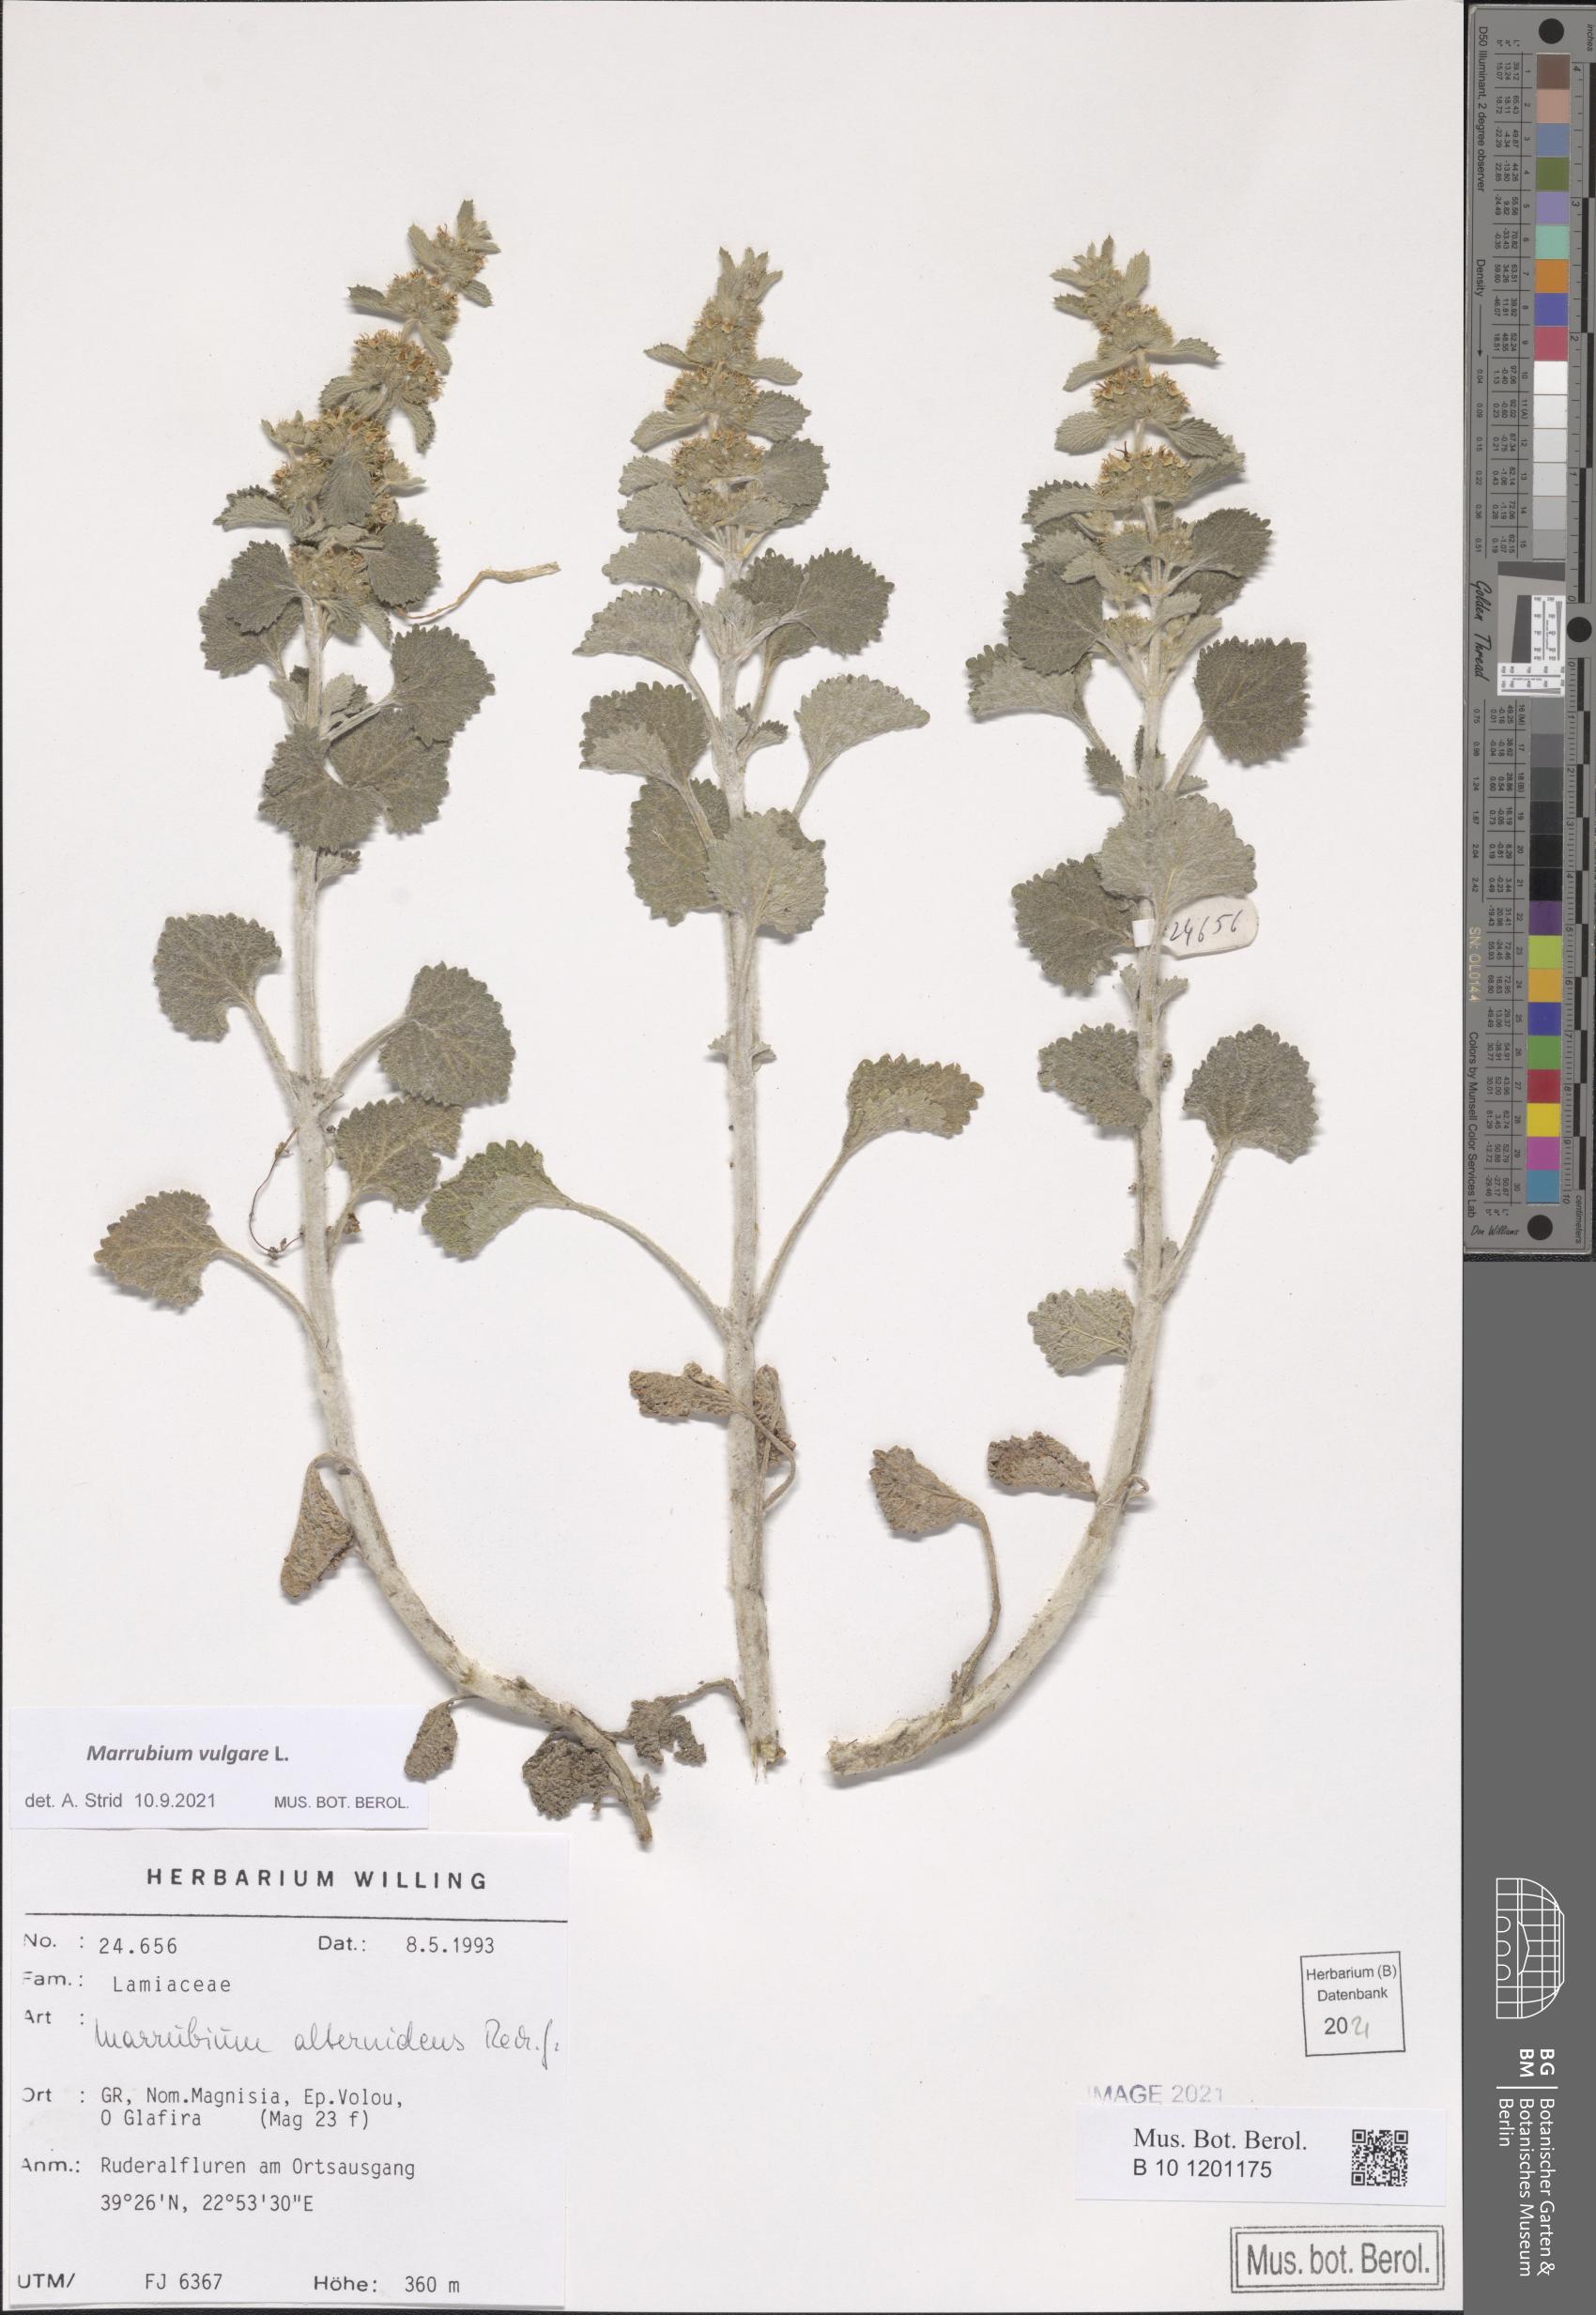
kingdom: Plantae
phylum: Tracheophyta
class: Magnoliopsida
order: Lamiales
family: Lamiaceae
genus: Marrubium
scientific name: Marrubium vulgare
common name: Horehound
